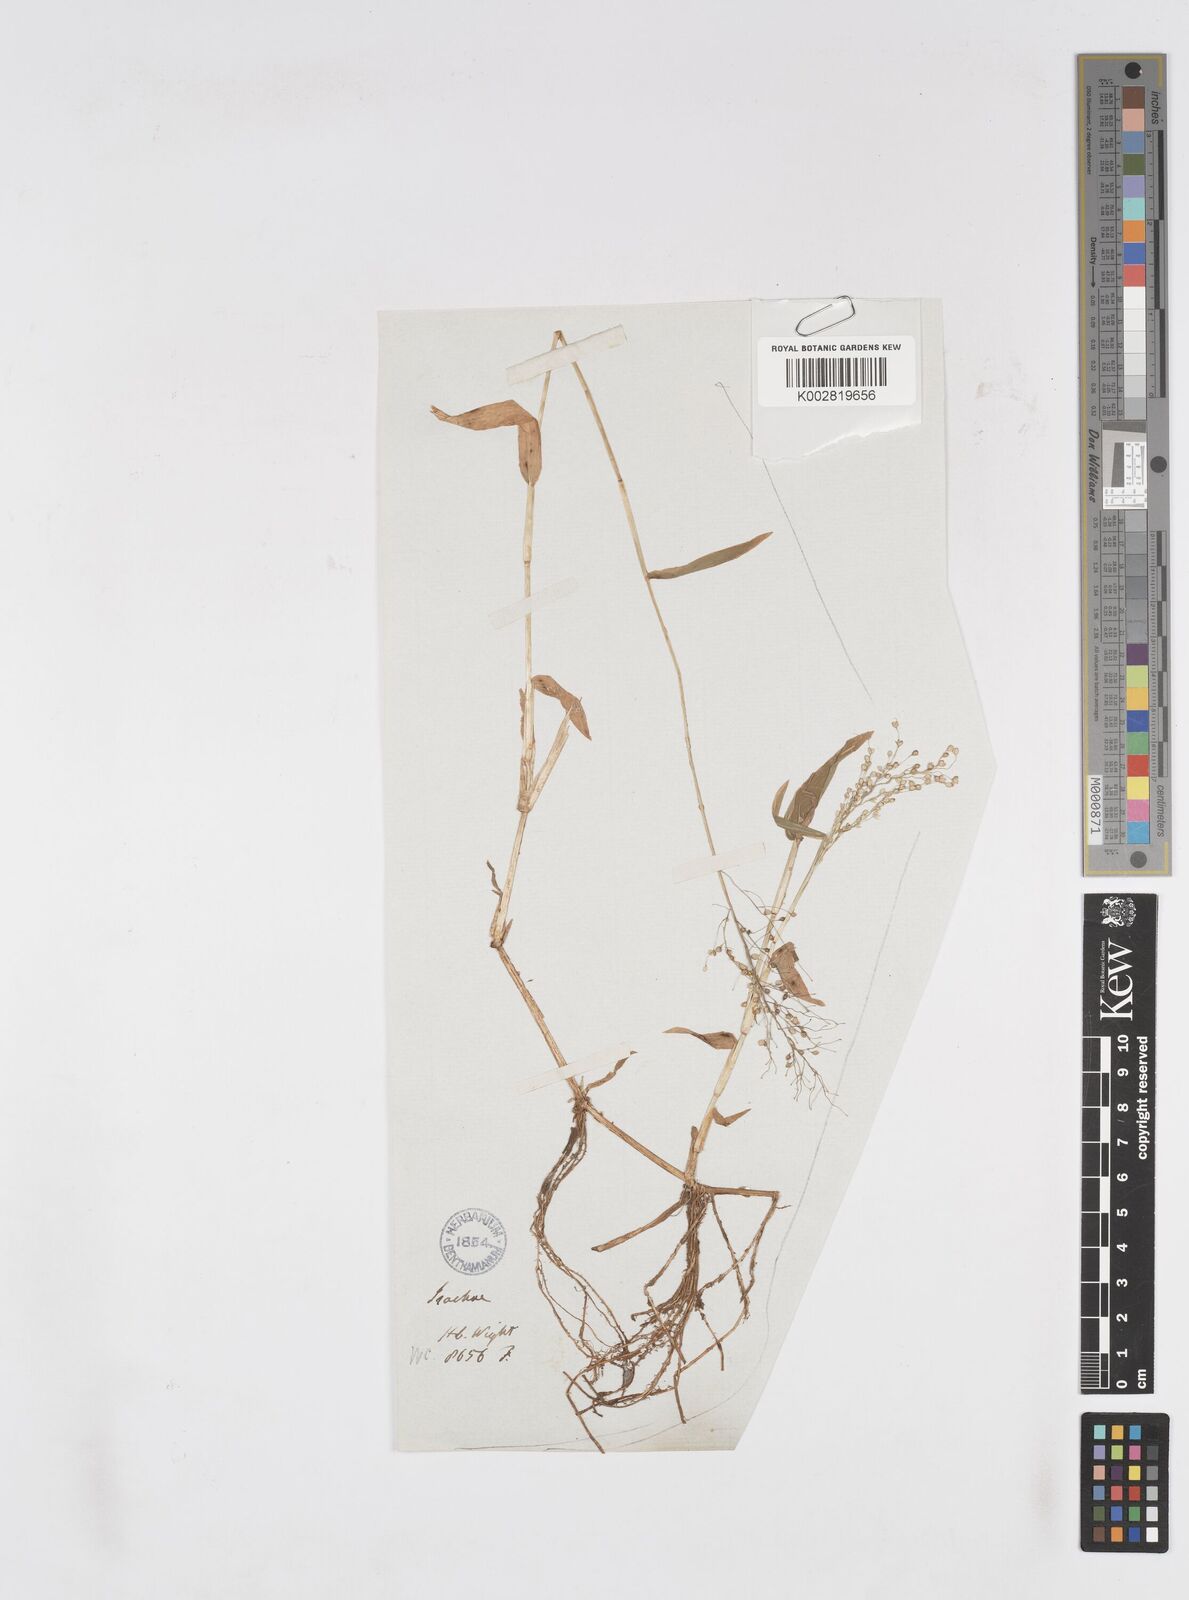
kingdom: Plantae
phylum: Tracheophyta
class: Liliopsida
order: Poales
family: Poaceae
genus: Isachne
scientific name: Isachne globosa
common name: Swamp millet
